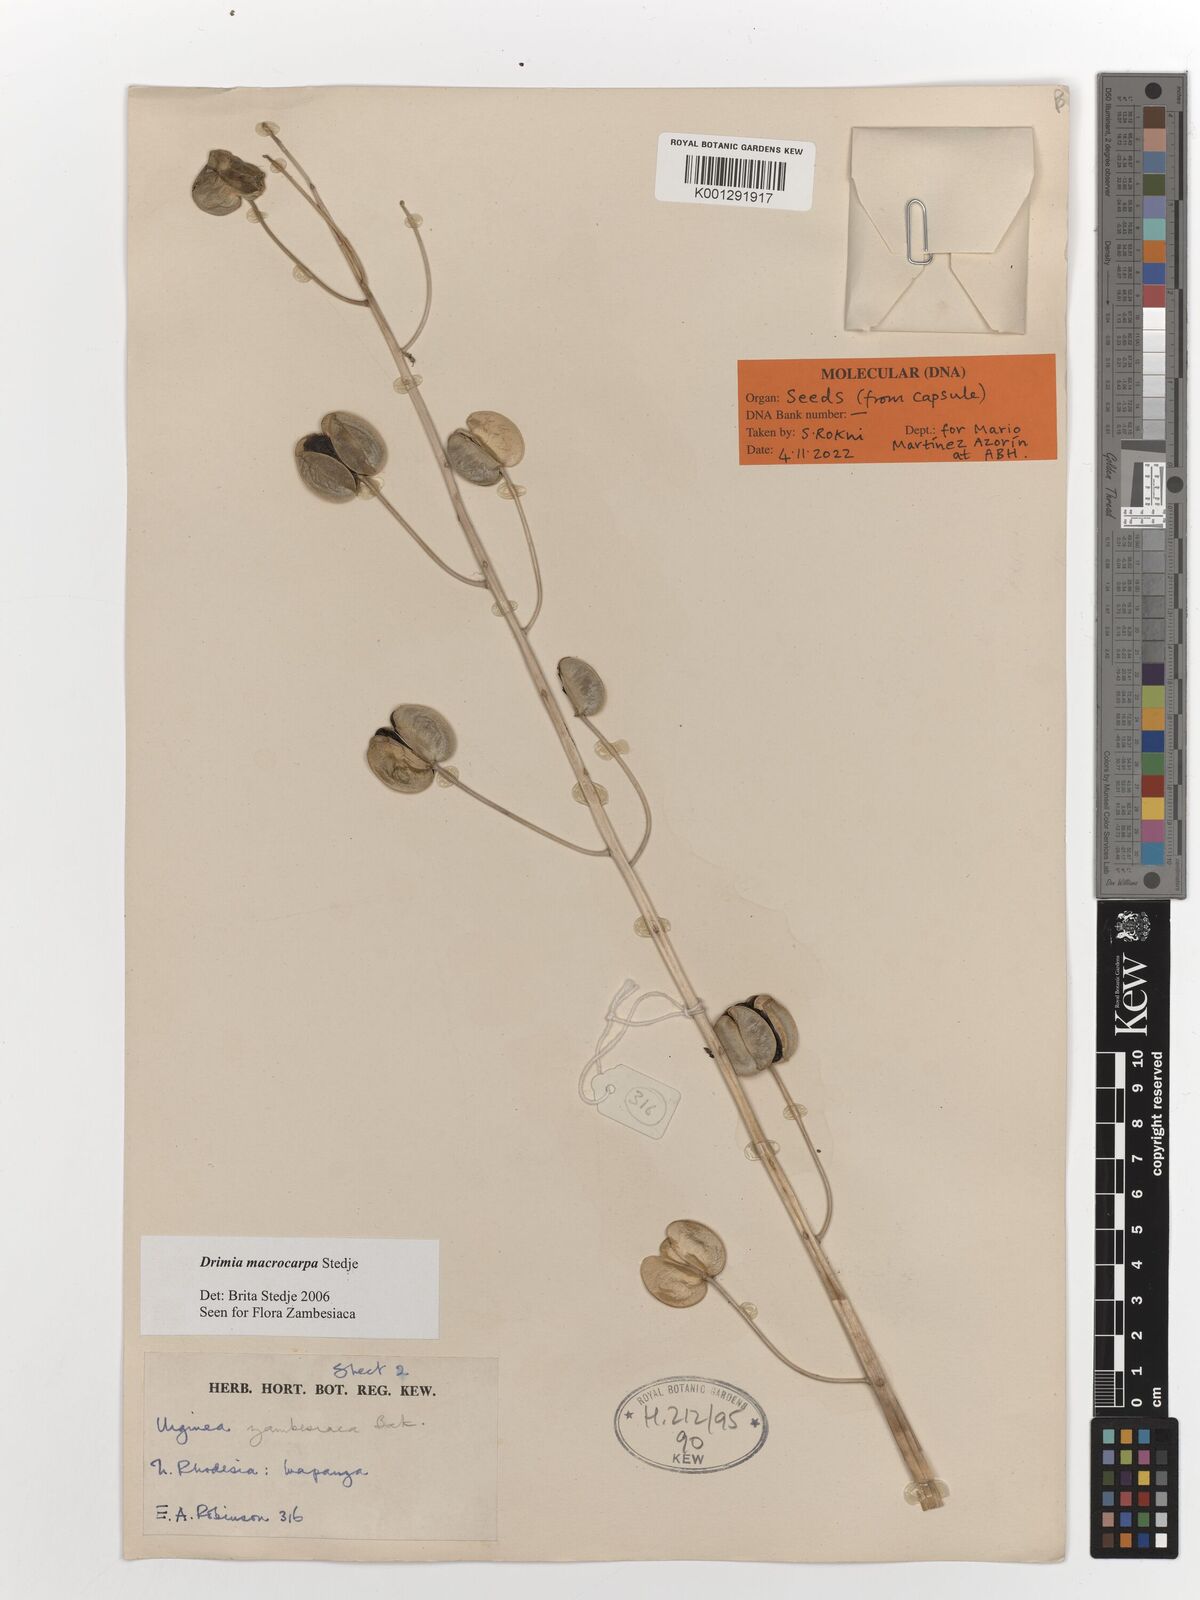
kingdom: Plantae
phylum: Tracheophyta
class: Liliopsida
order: Asparagales
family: Asparagaceae
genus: Drimia
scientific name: Drimia basutica
